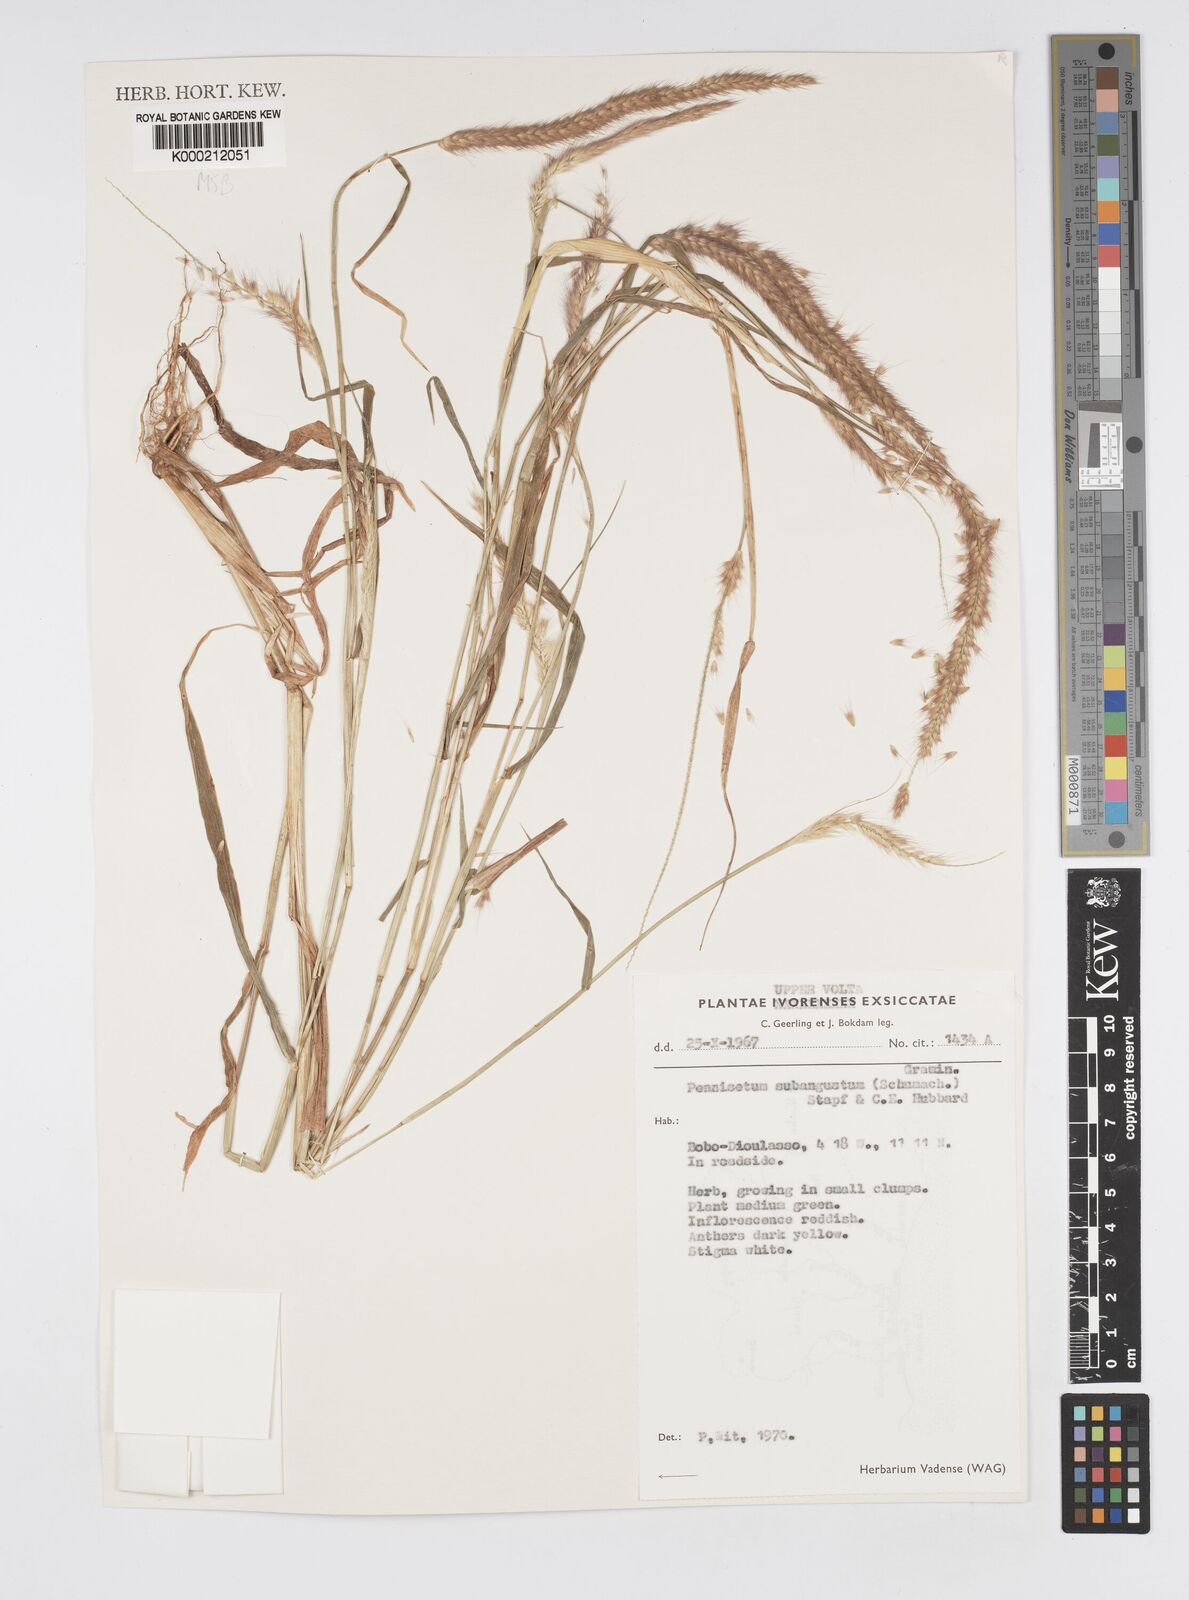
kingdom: Plantae
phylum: Tracheophyta
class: Liliopsida
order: Poales
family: Poaceae
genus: Setaria
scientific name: Setaria parviflora
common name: Knotroot bristle-grass
